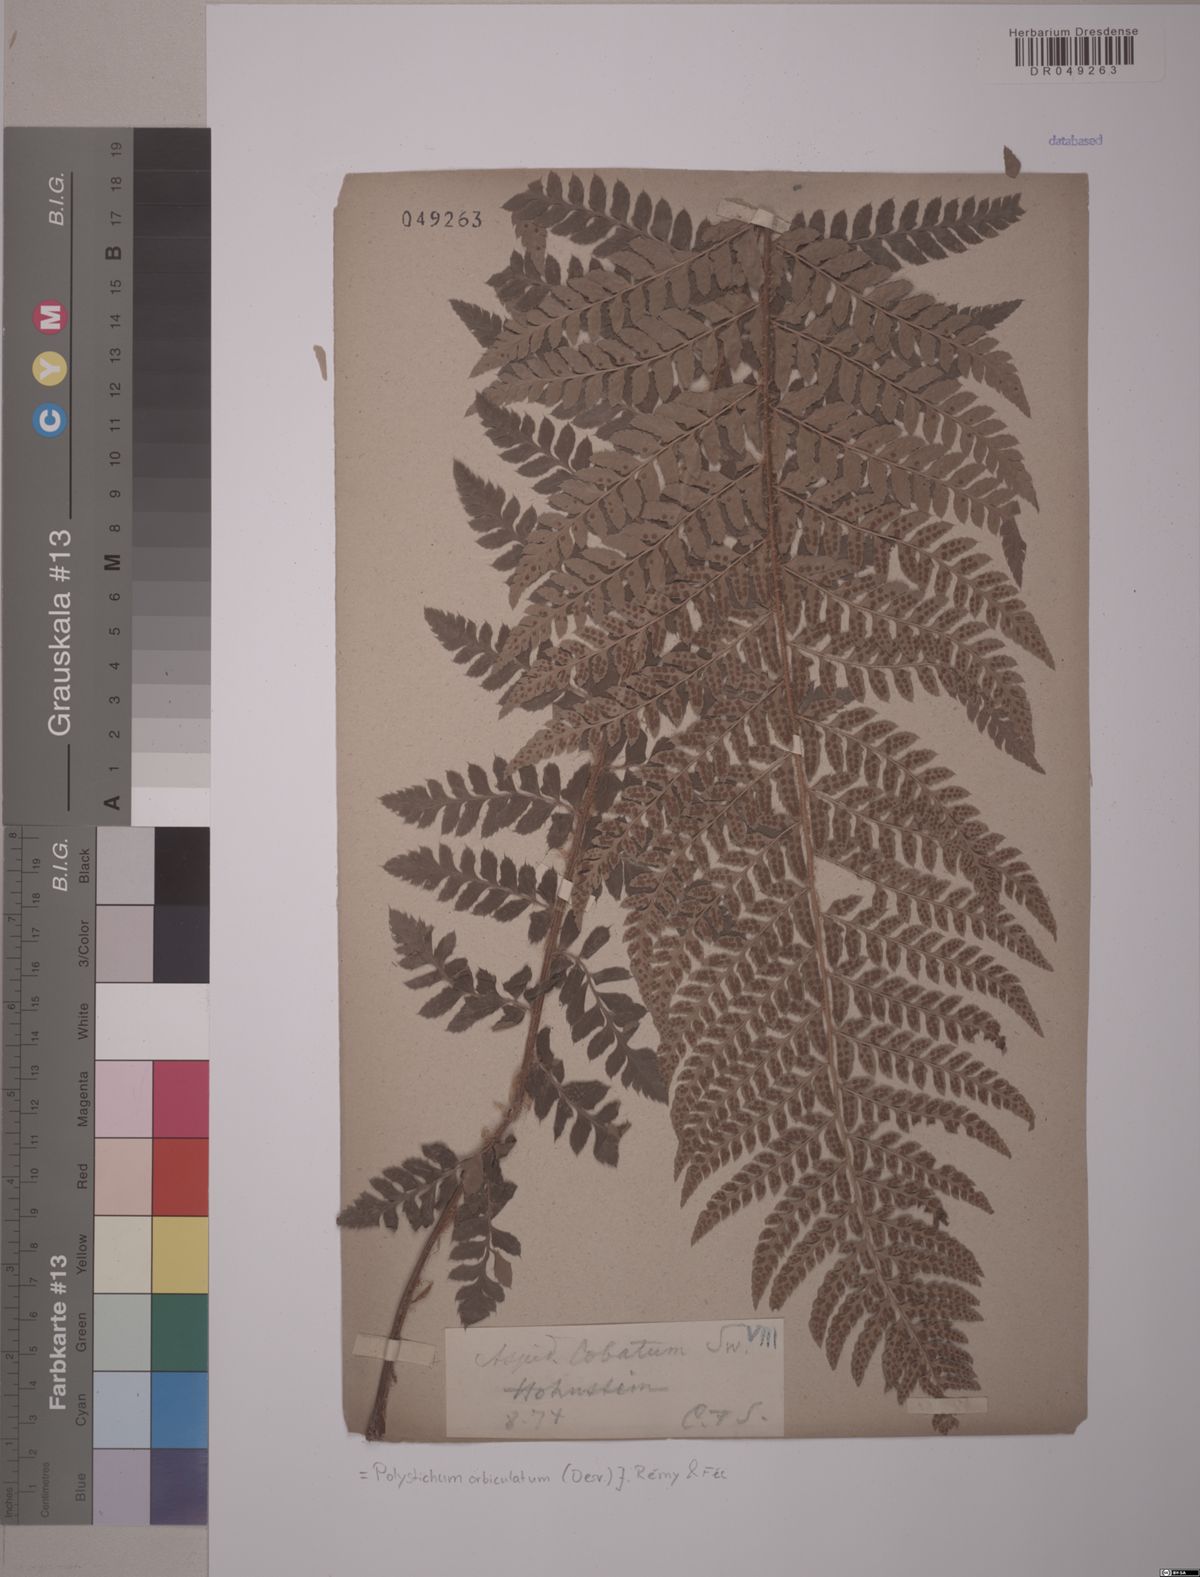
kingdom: Plantae
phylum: Tracheophyta
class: Polypodiopsida
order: Polypodiales
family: Dryopteridaceae
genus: Polystichum
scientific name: Polystichum aculeatum
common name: Hard shield-fern
